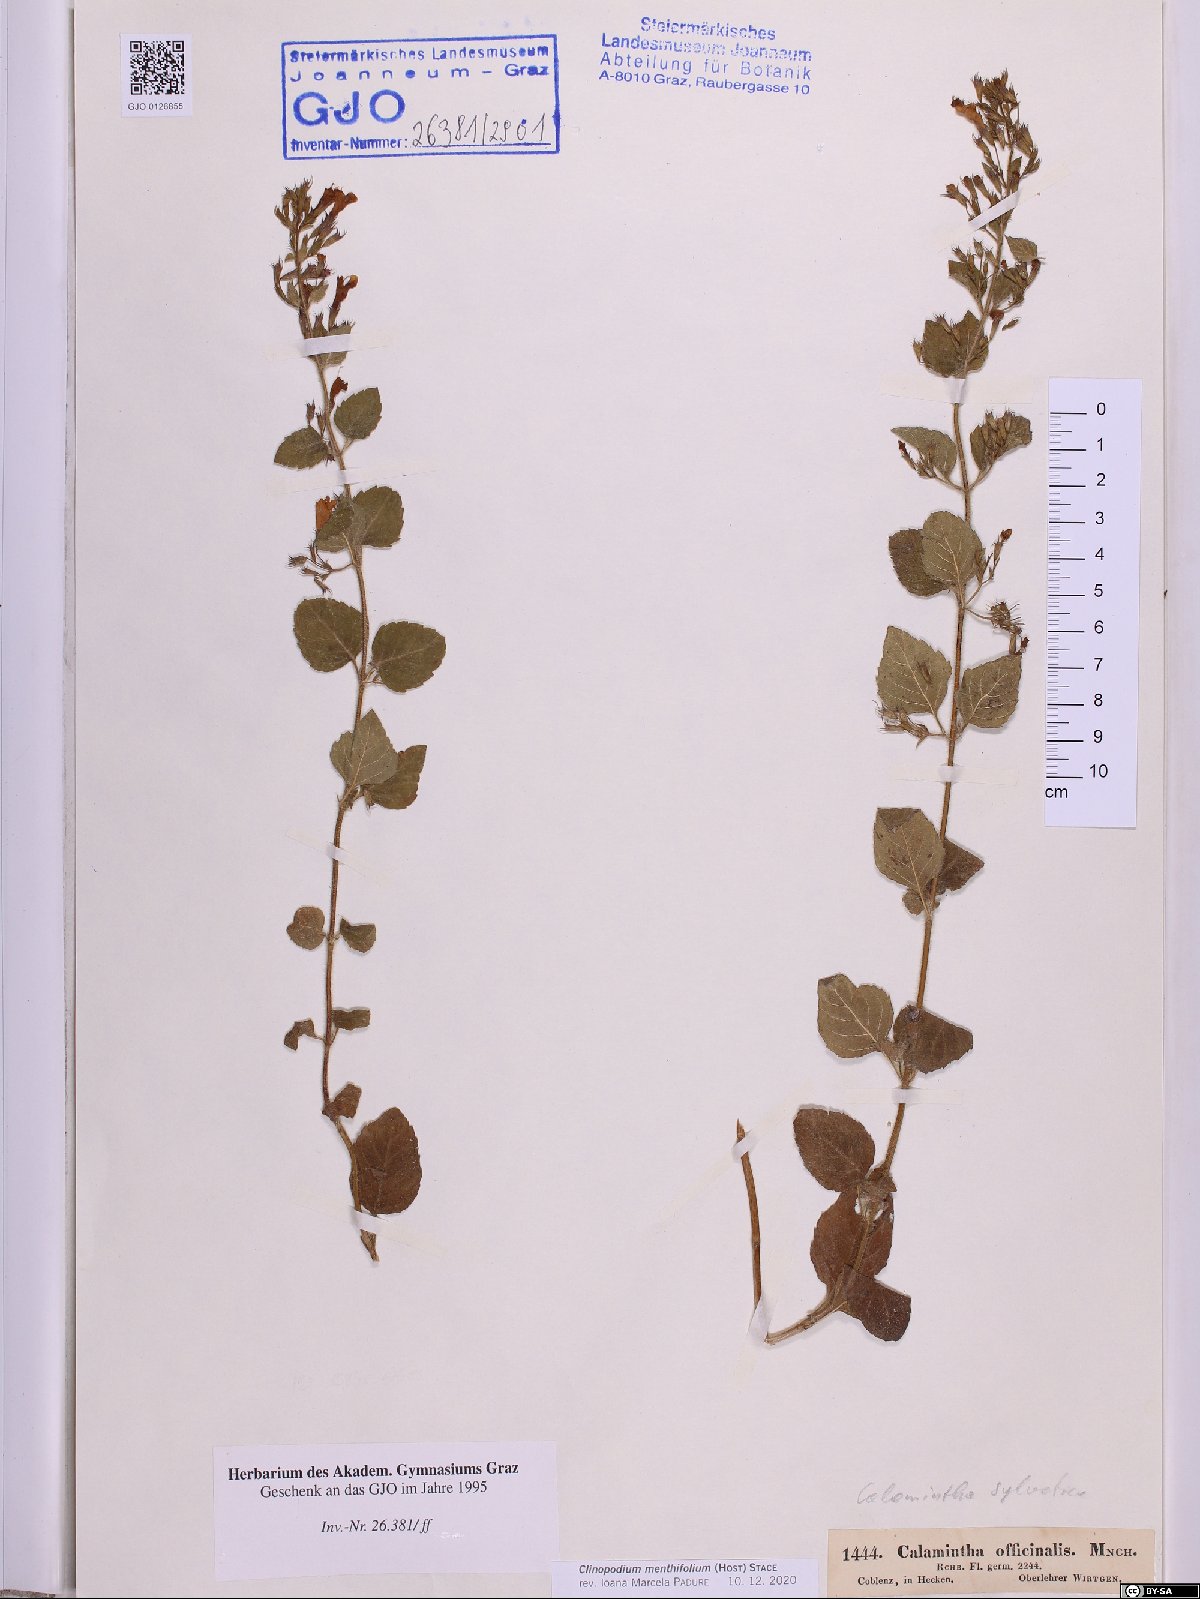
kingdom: Plantae
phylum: Tracheophyta
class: Magnoliopsida
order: Lamiales
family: Lamiaceae
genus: Clinopodium
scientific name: Clinopodium menthifolium
